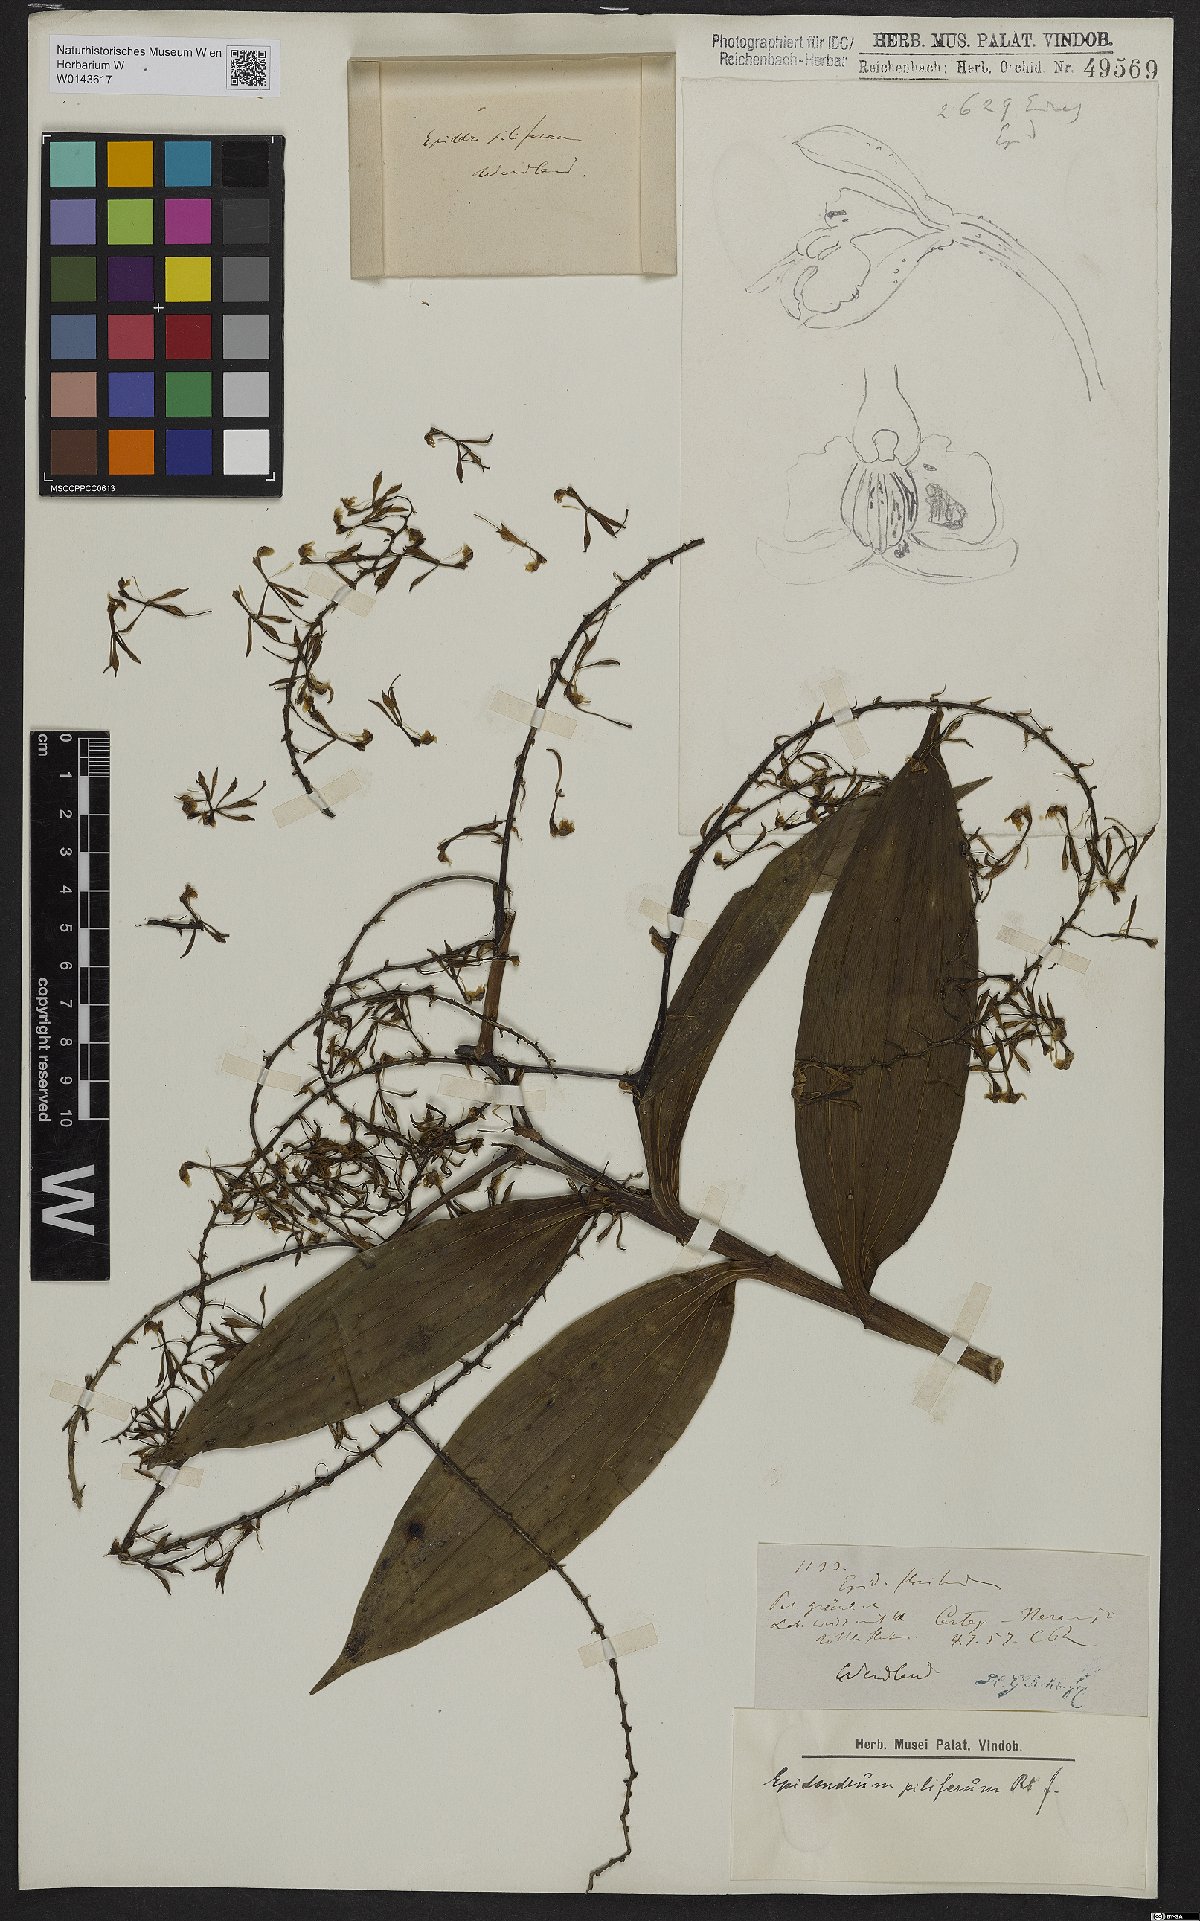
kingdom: Plantae
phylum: Tracheophyta
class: Liliopsida
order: Asparagales
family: Orchidaceae
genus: Epidendrum
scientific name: Epidendrum piliferum
